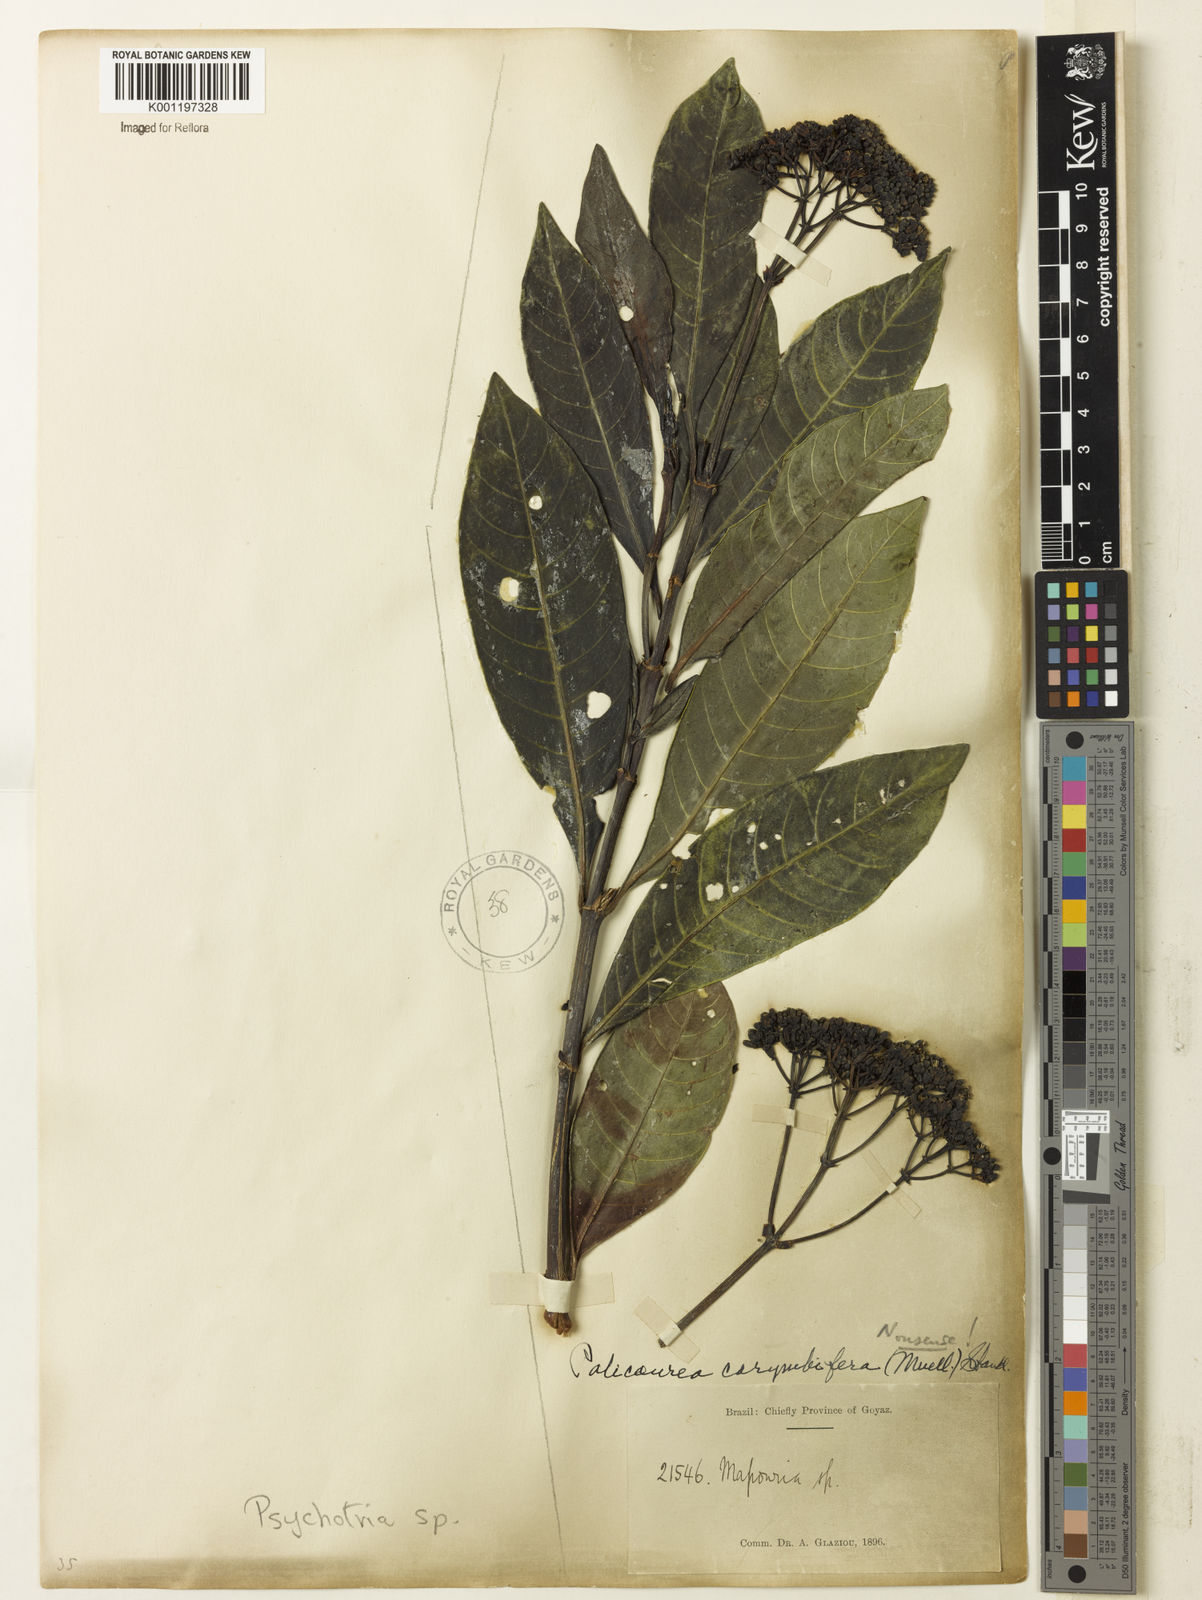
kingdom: Plantae
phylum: Tracheophyta
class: Magnoliopsida
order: Gentianales
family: Rubiaceae
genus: Psychotria
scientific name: Psychotria anceps
